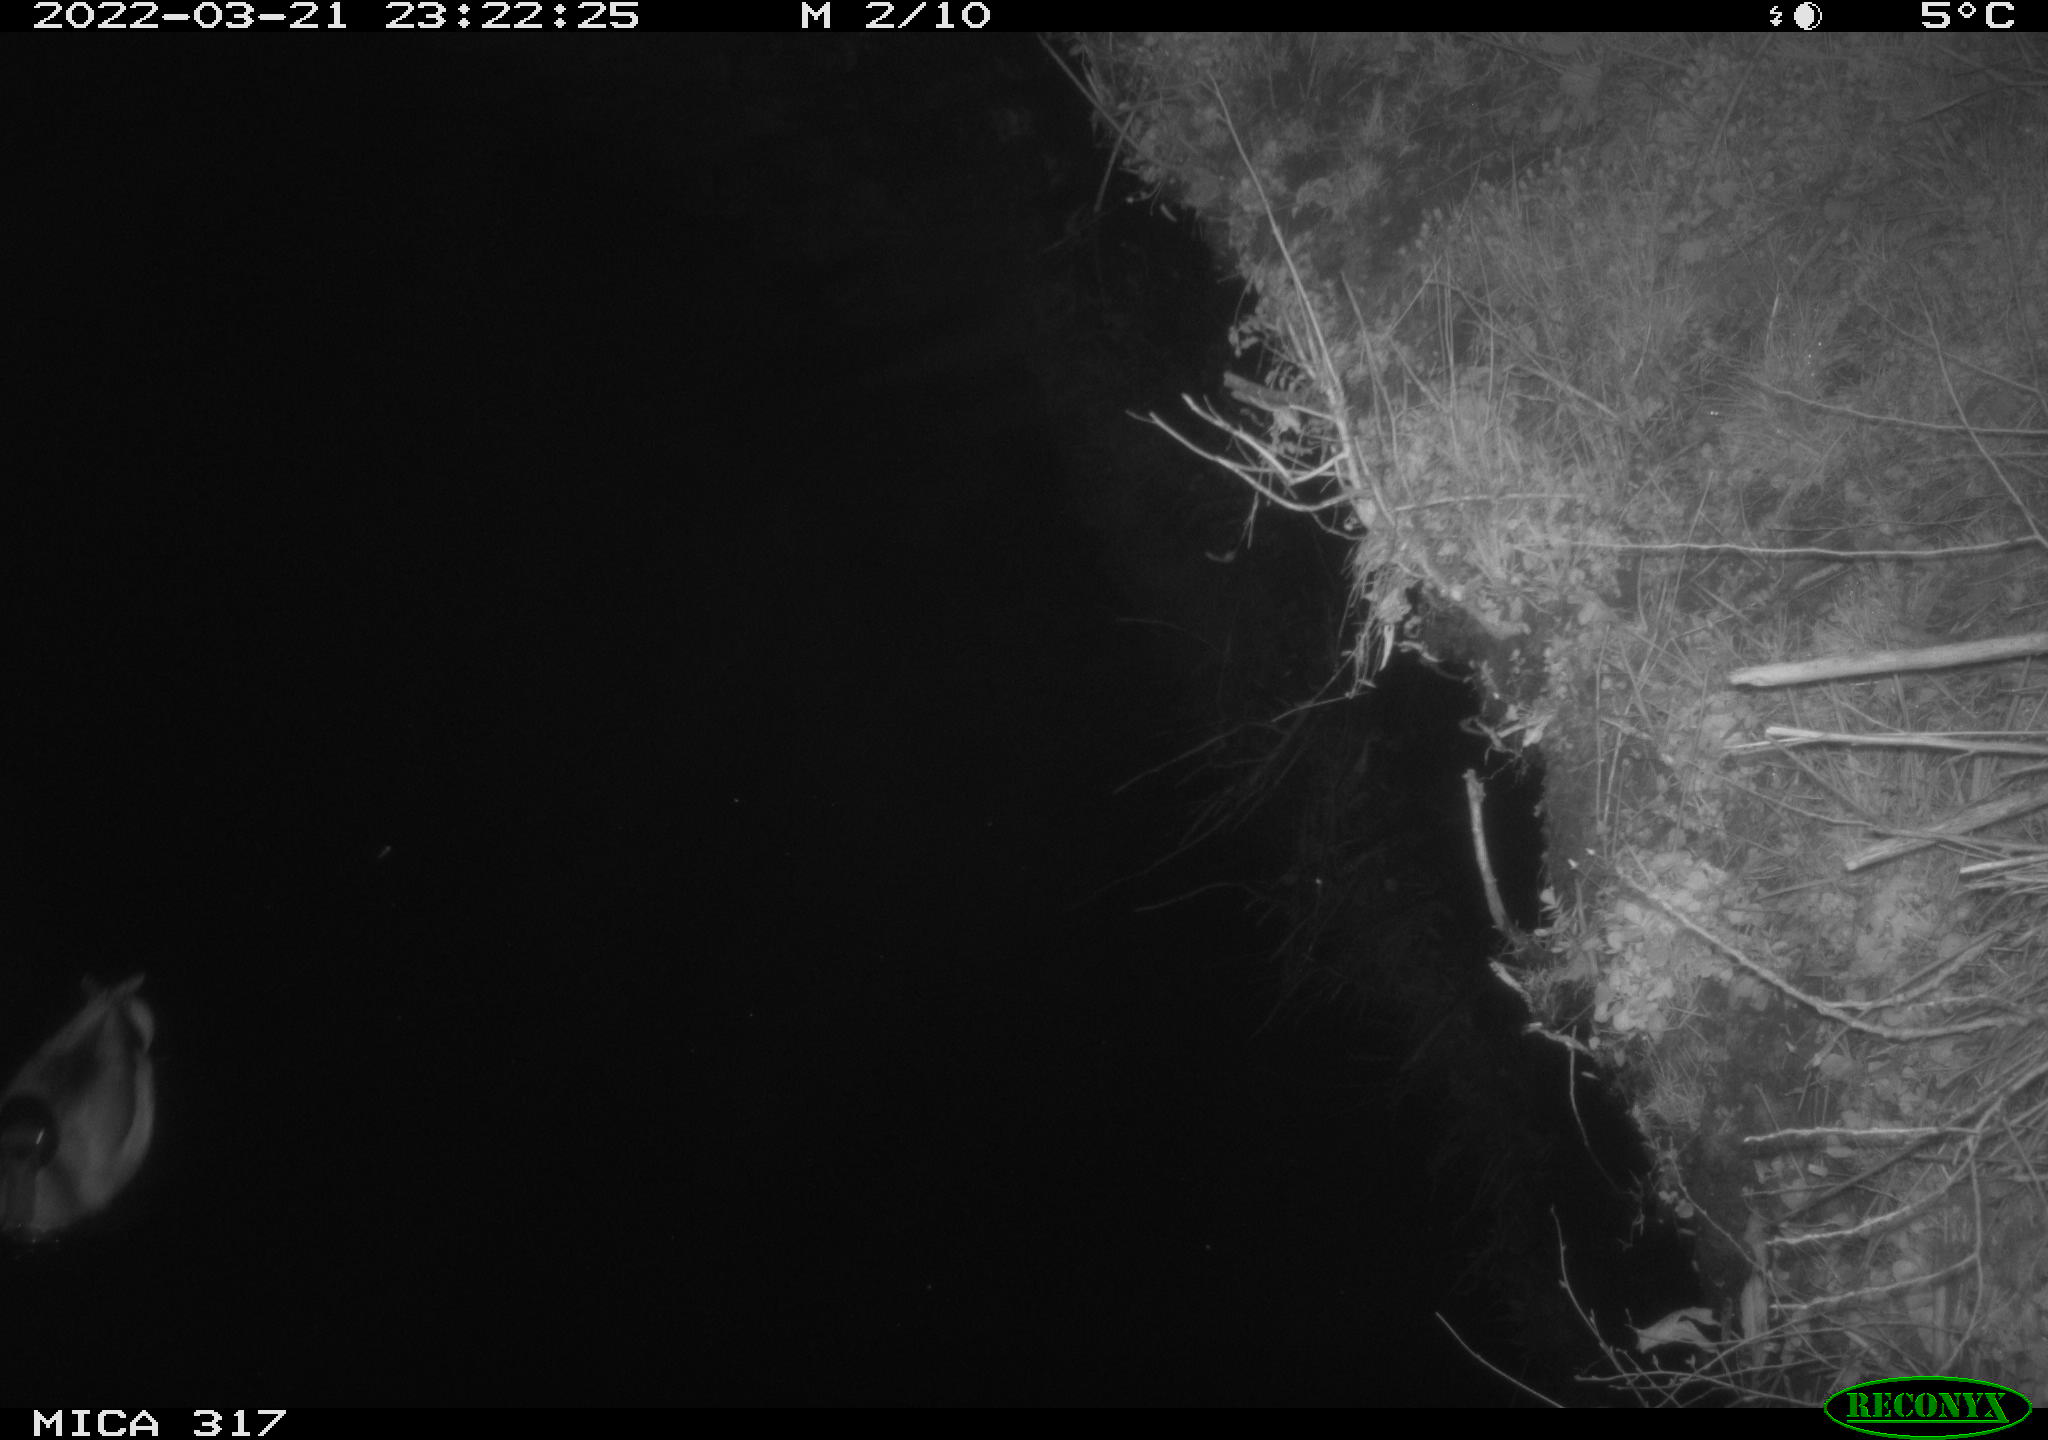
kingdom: Animalia
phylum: Chordata
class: Aves
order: Anseriformes
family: Anatidae
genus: Anas
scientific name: Anas platyrhynchos
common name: Mallard
